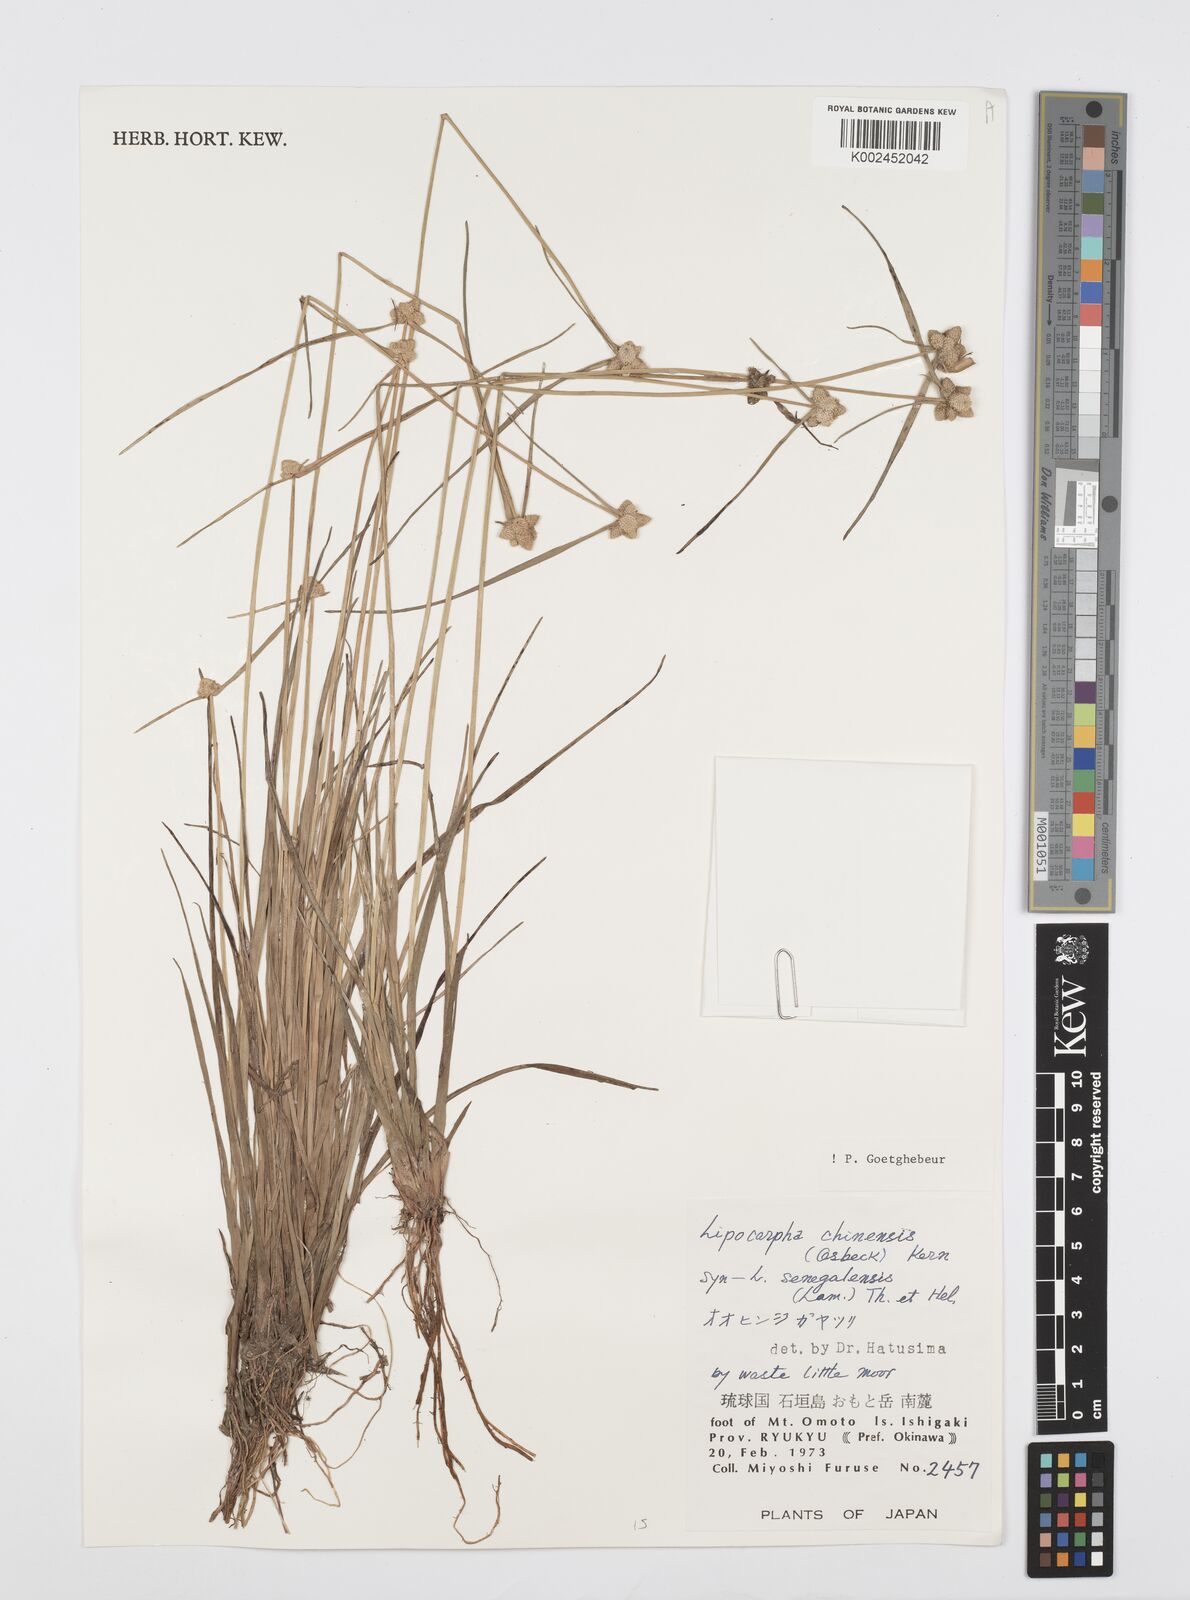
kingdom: Plantae
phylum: Tracheophyta
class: Liliopsida
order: Poales
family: Cyperaceae
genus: Cyperus
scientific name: Cyperus albescens
